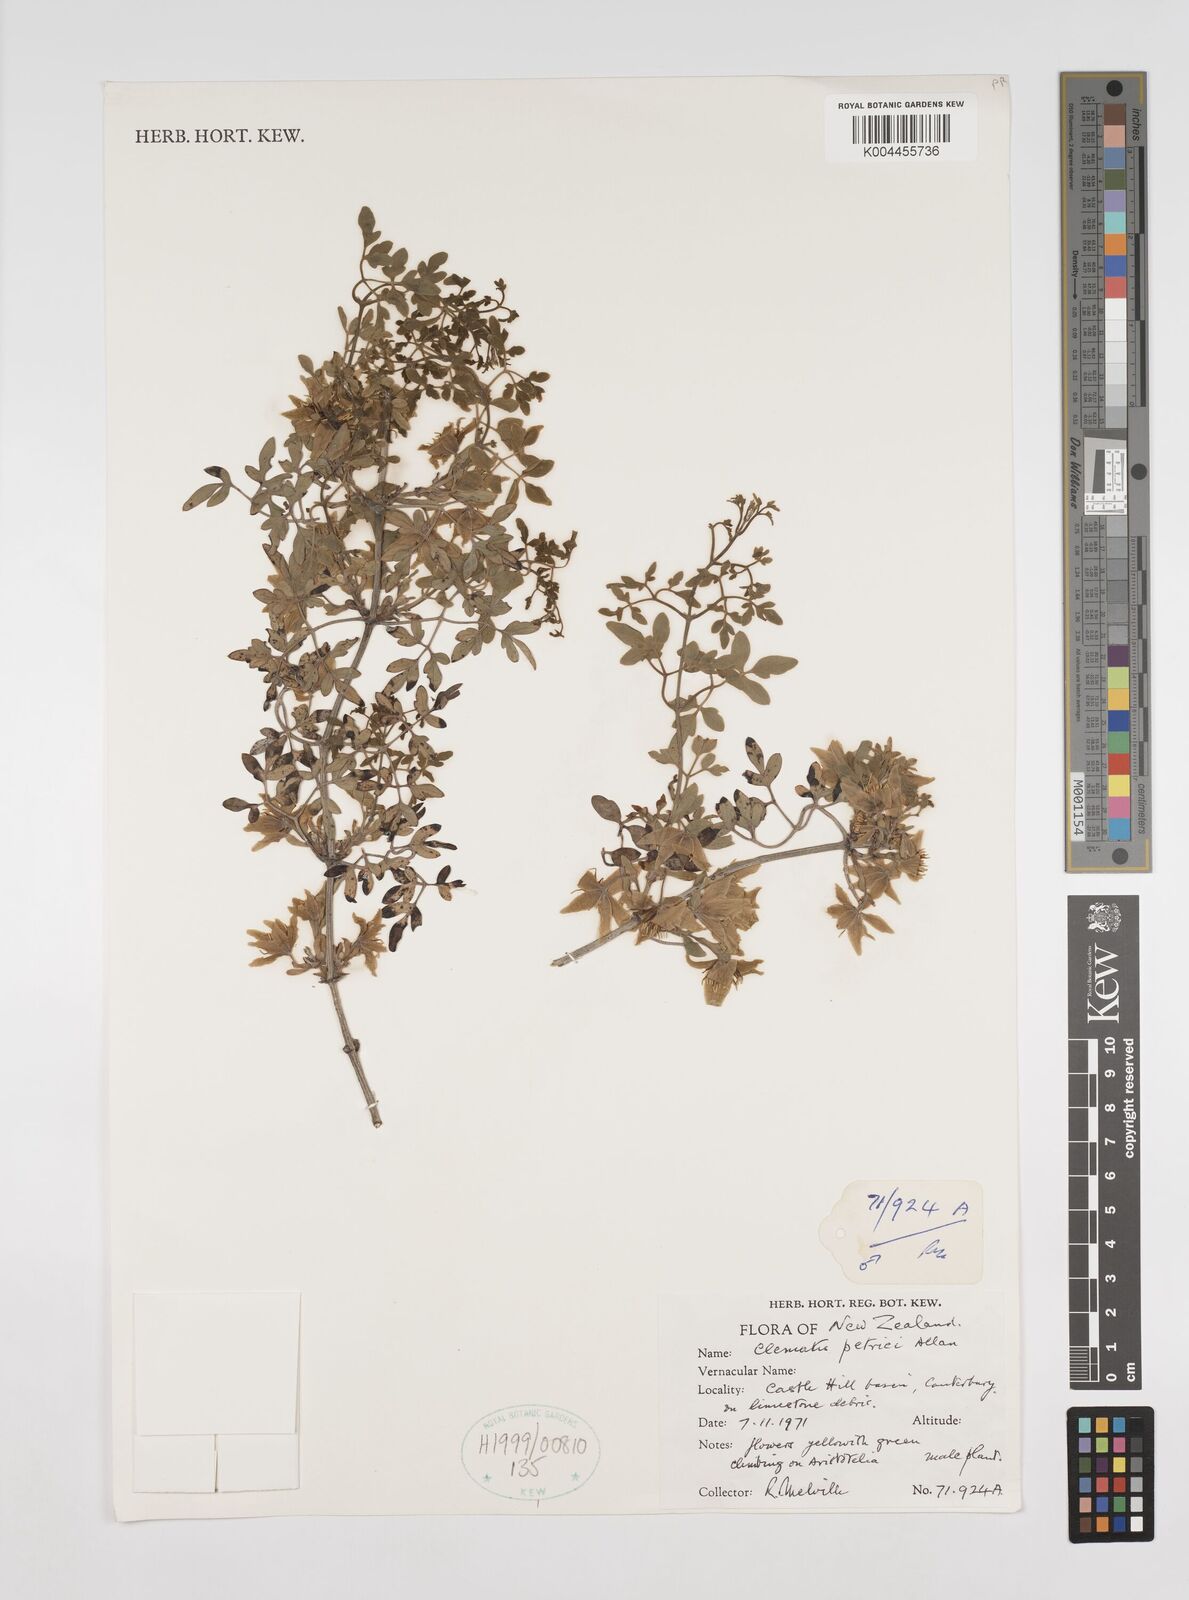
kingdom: Plantae
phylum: Tracheophyta
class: Magnoliopsida
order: Ranunculales
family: Ranunculaceae
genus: Clematis
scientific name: Clematis petriei
